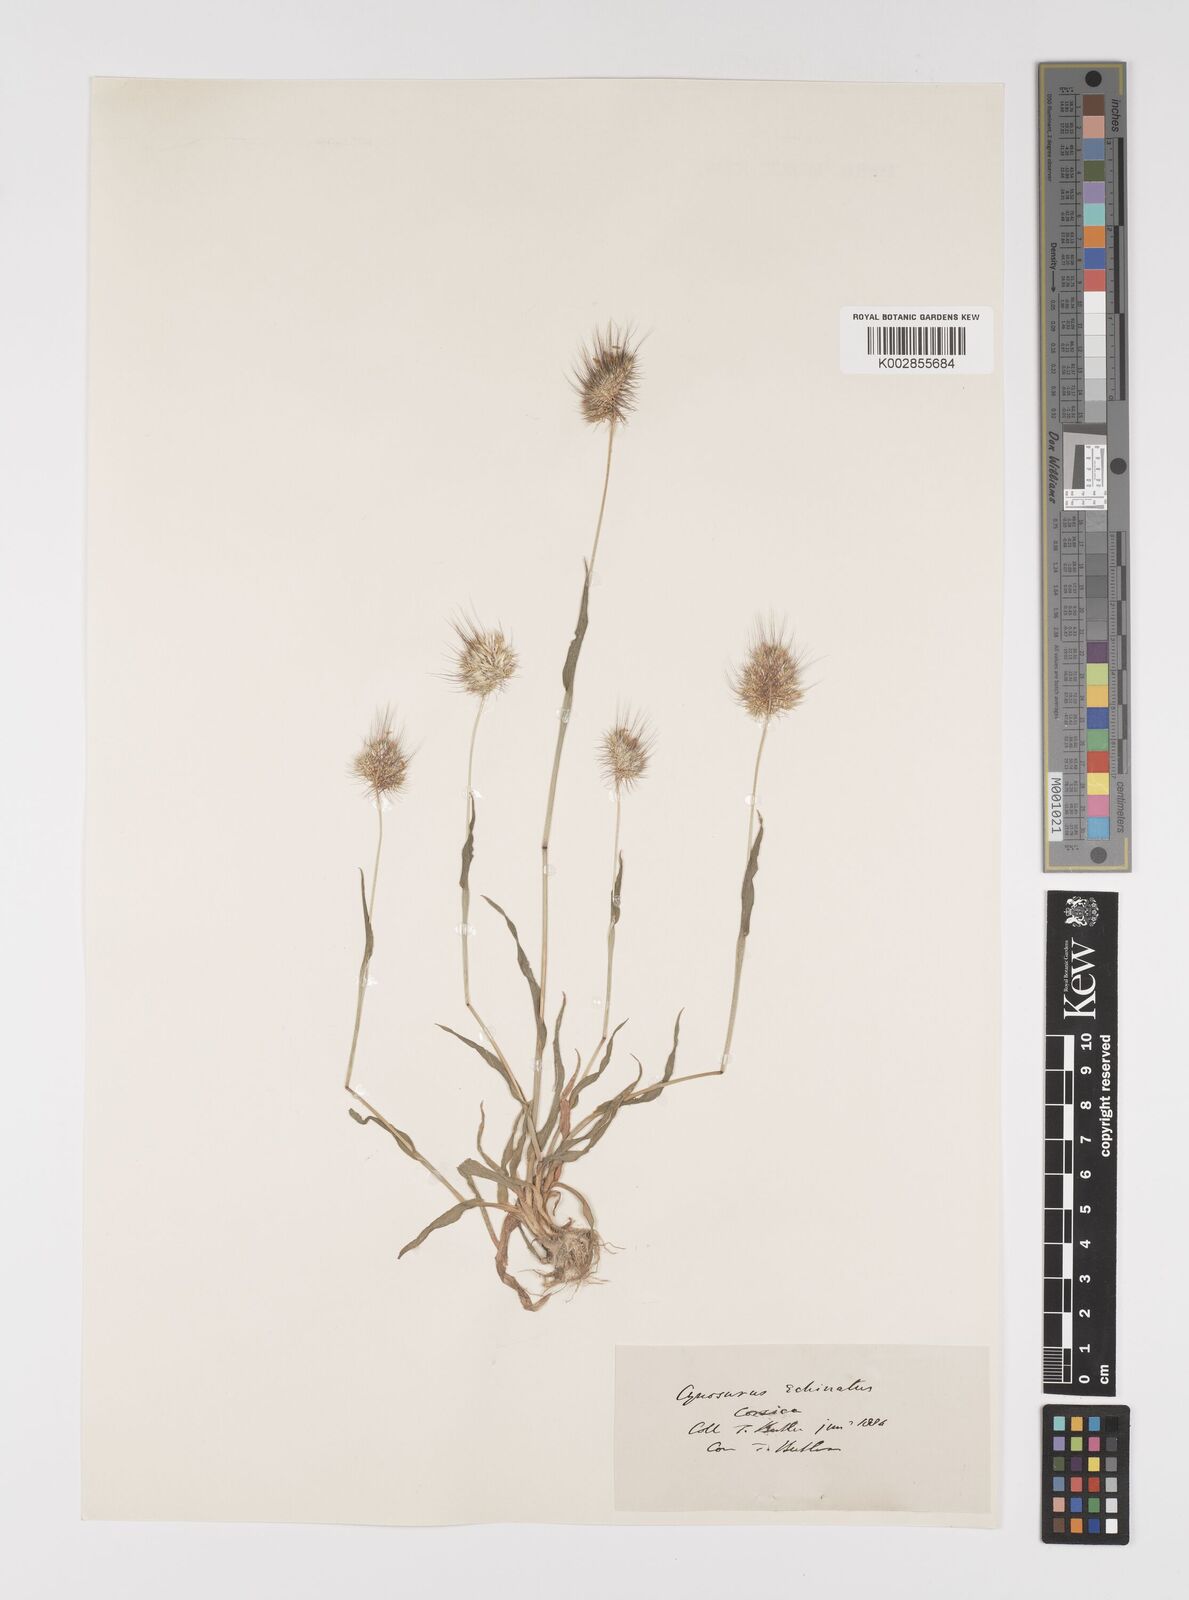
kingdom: Plantae
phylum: Tracheophyta
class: Liliopsida
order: Poales
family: Poaceae
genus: Cynosurus
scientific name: Cynosurus echinatus
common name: Rough dog's-tail
